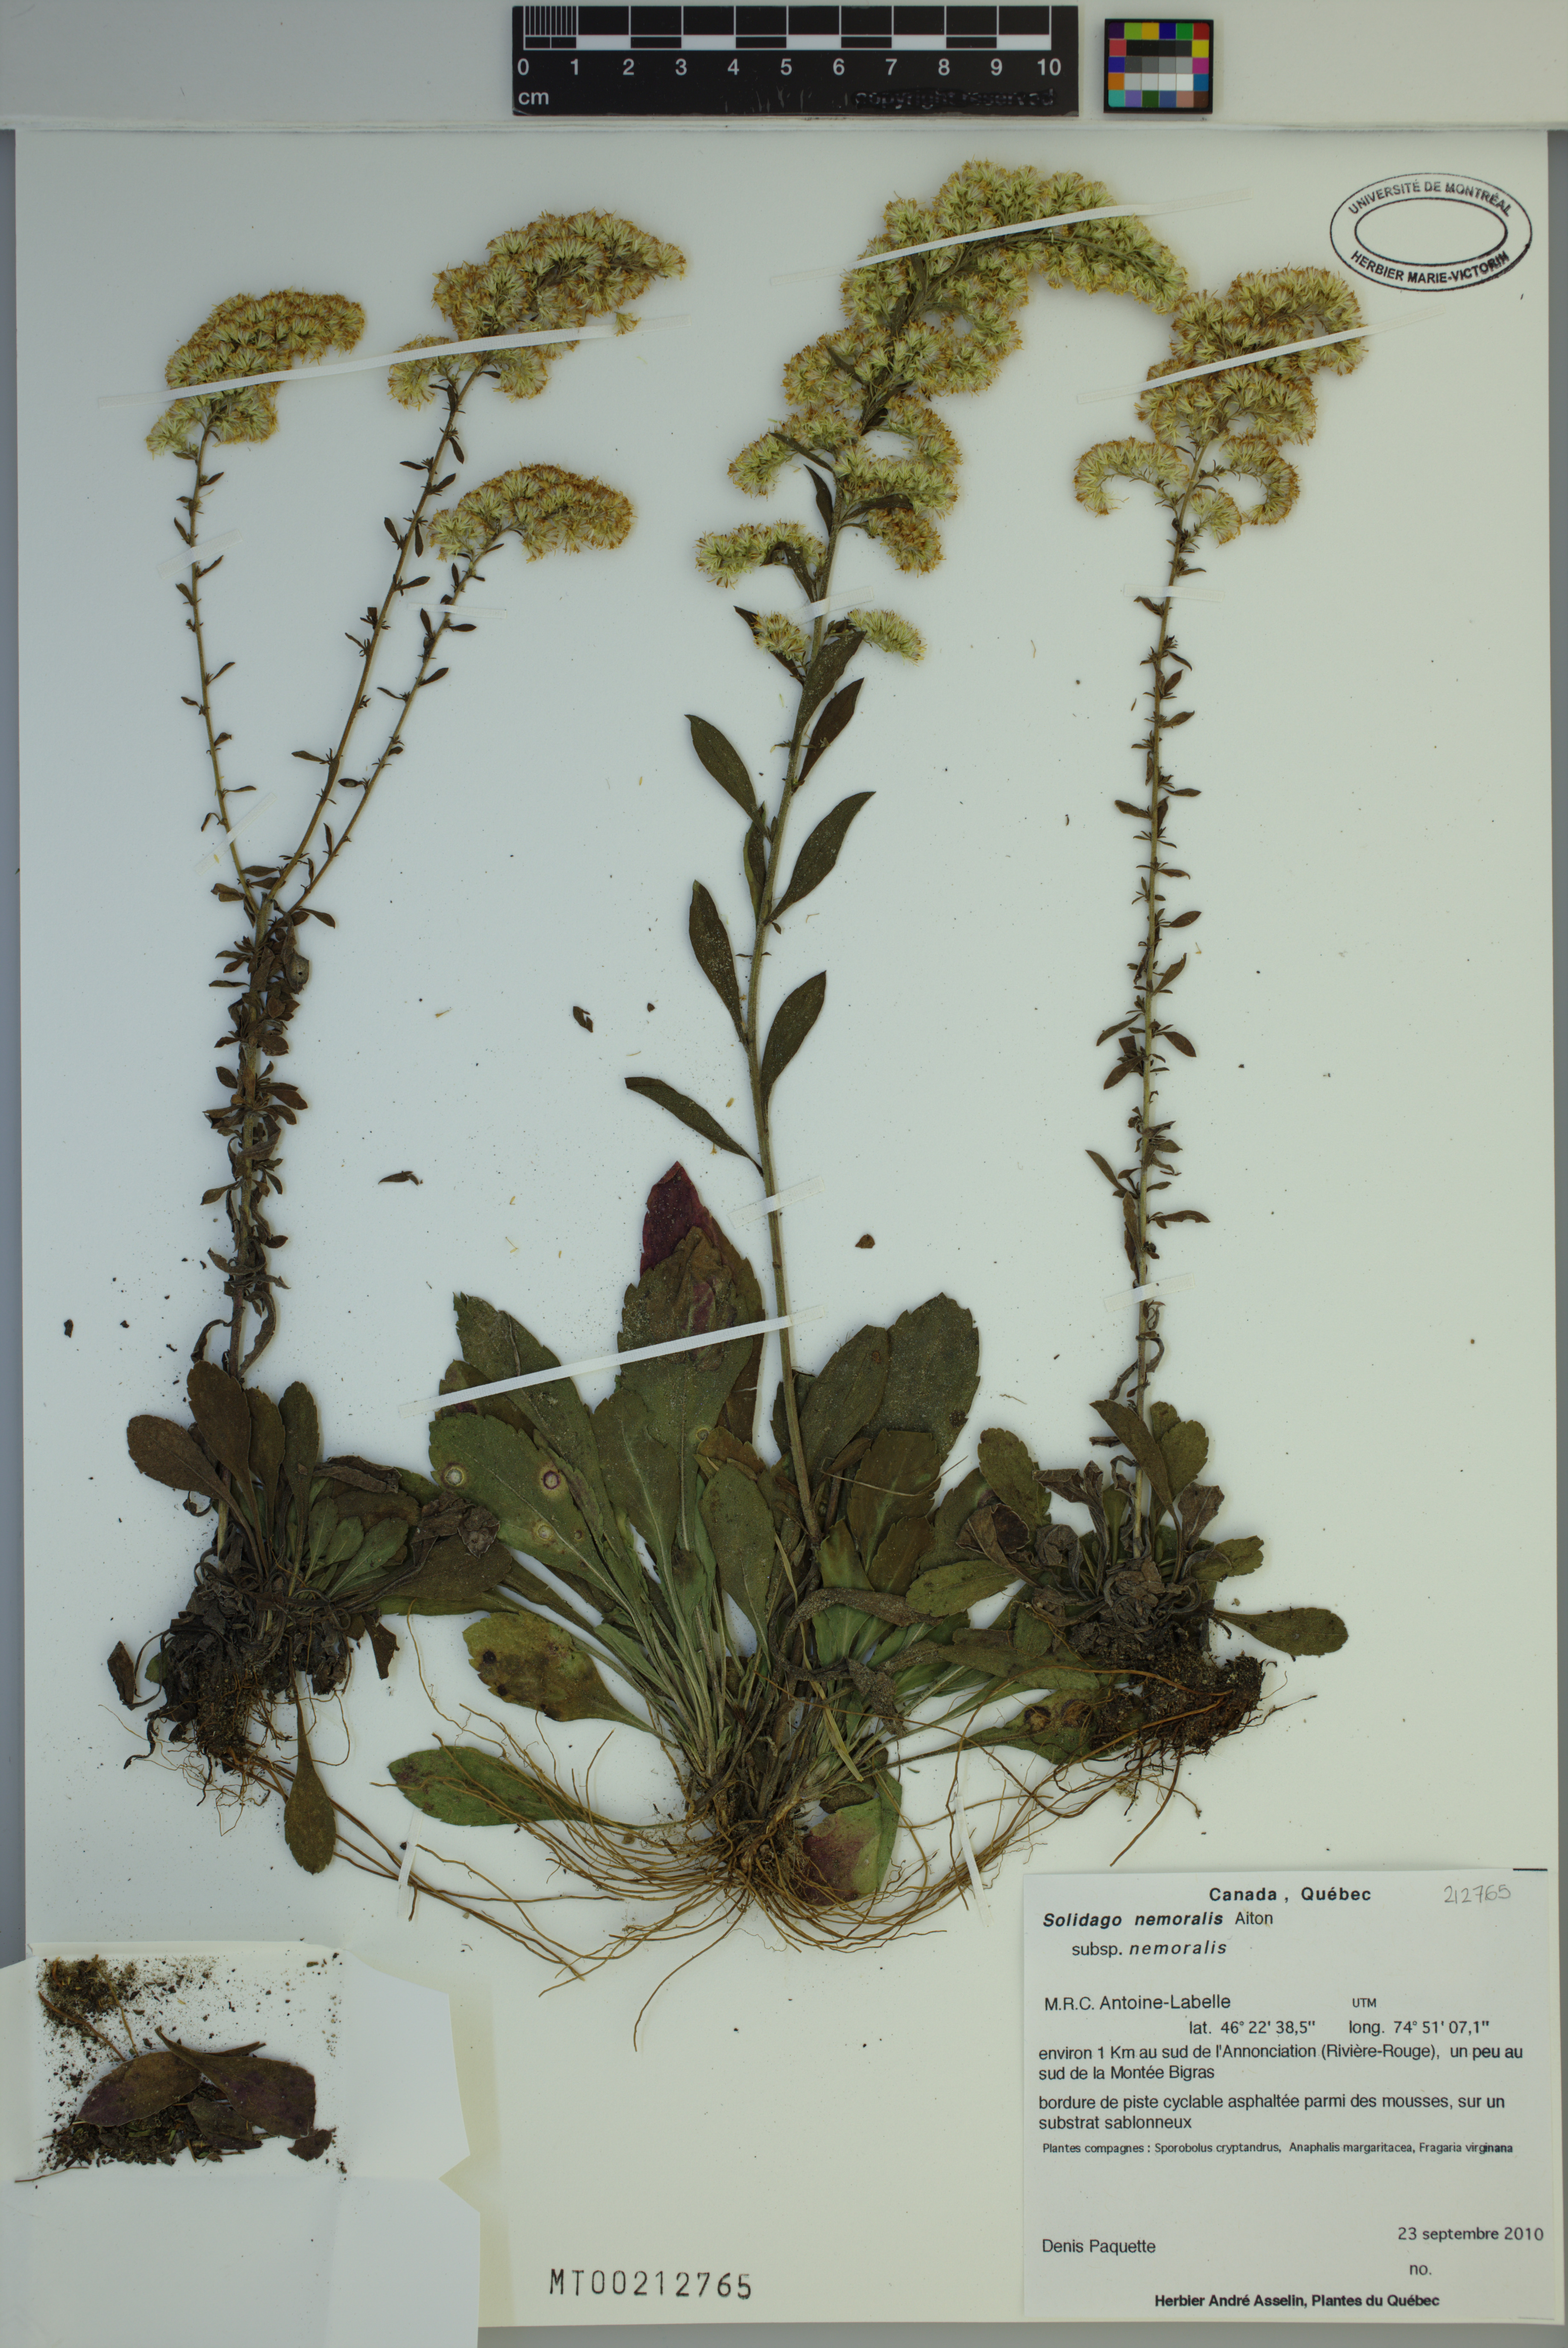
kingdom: Plantae
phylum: Tracheophyta
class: Magnoliopsida
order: Asterales
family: Asteraceae
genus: Solidago
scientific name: Solidago nemoralis
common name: Grey goldenrod
